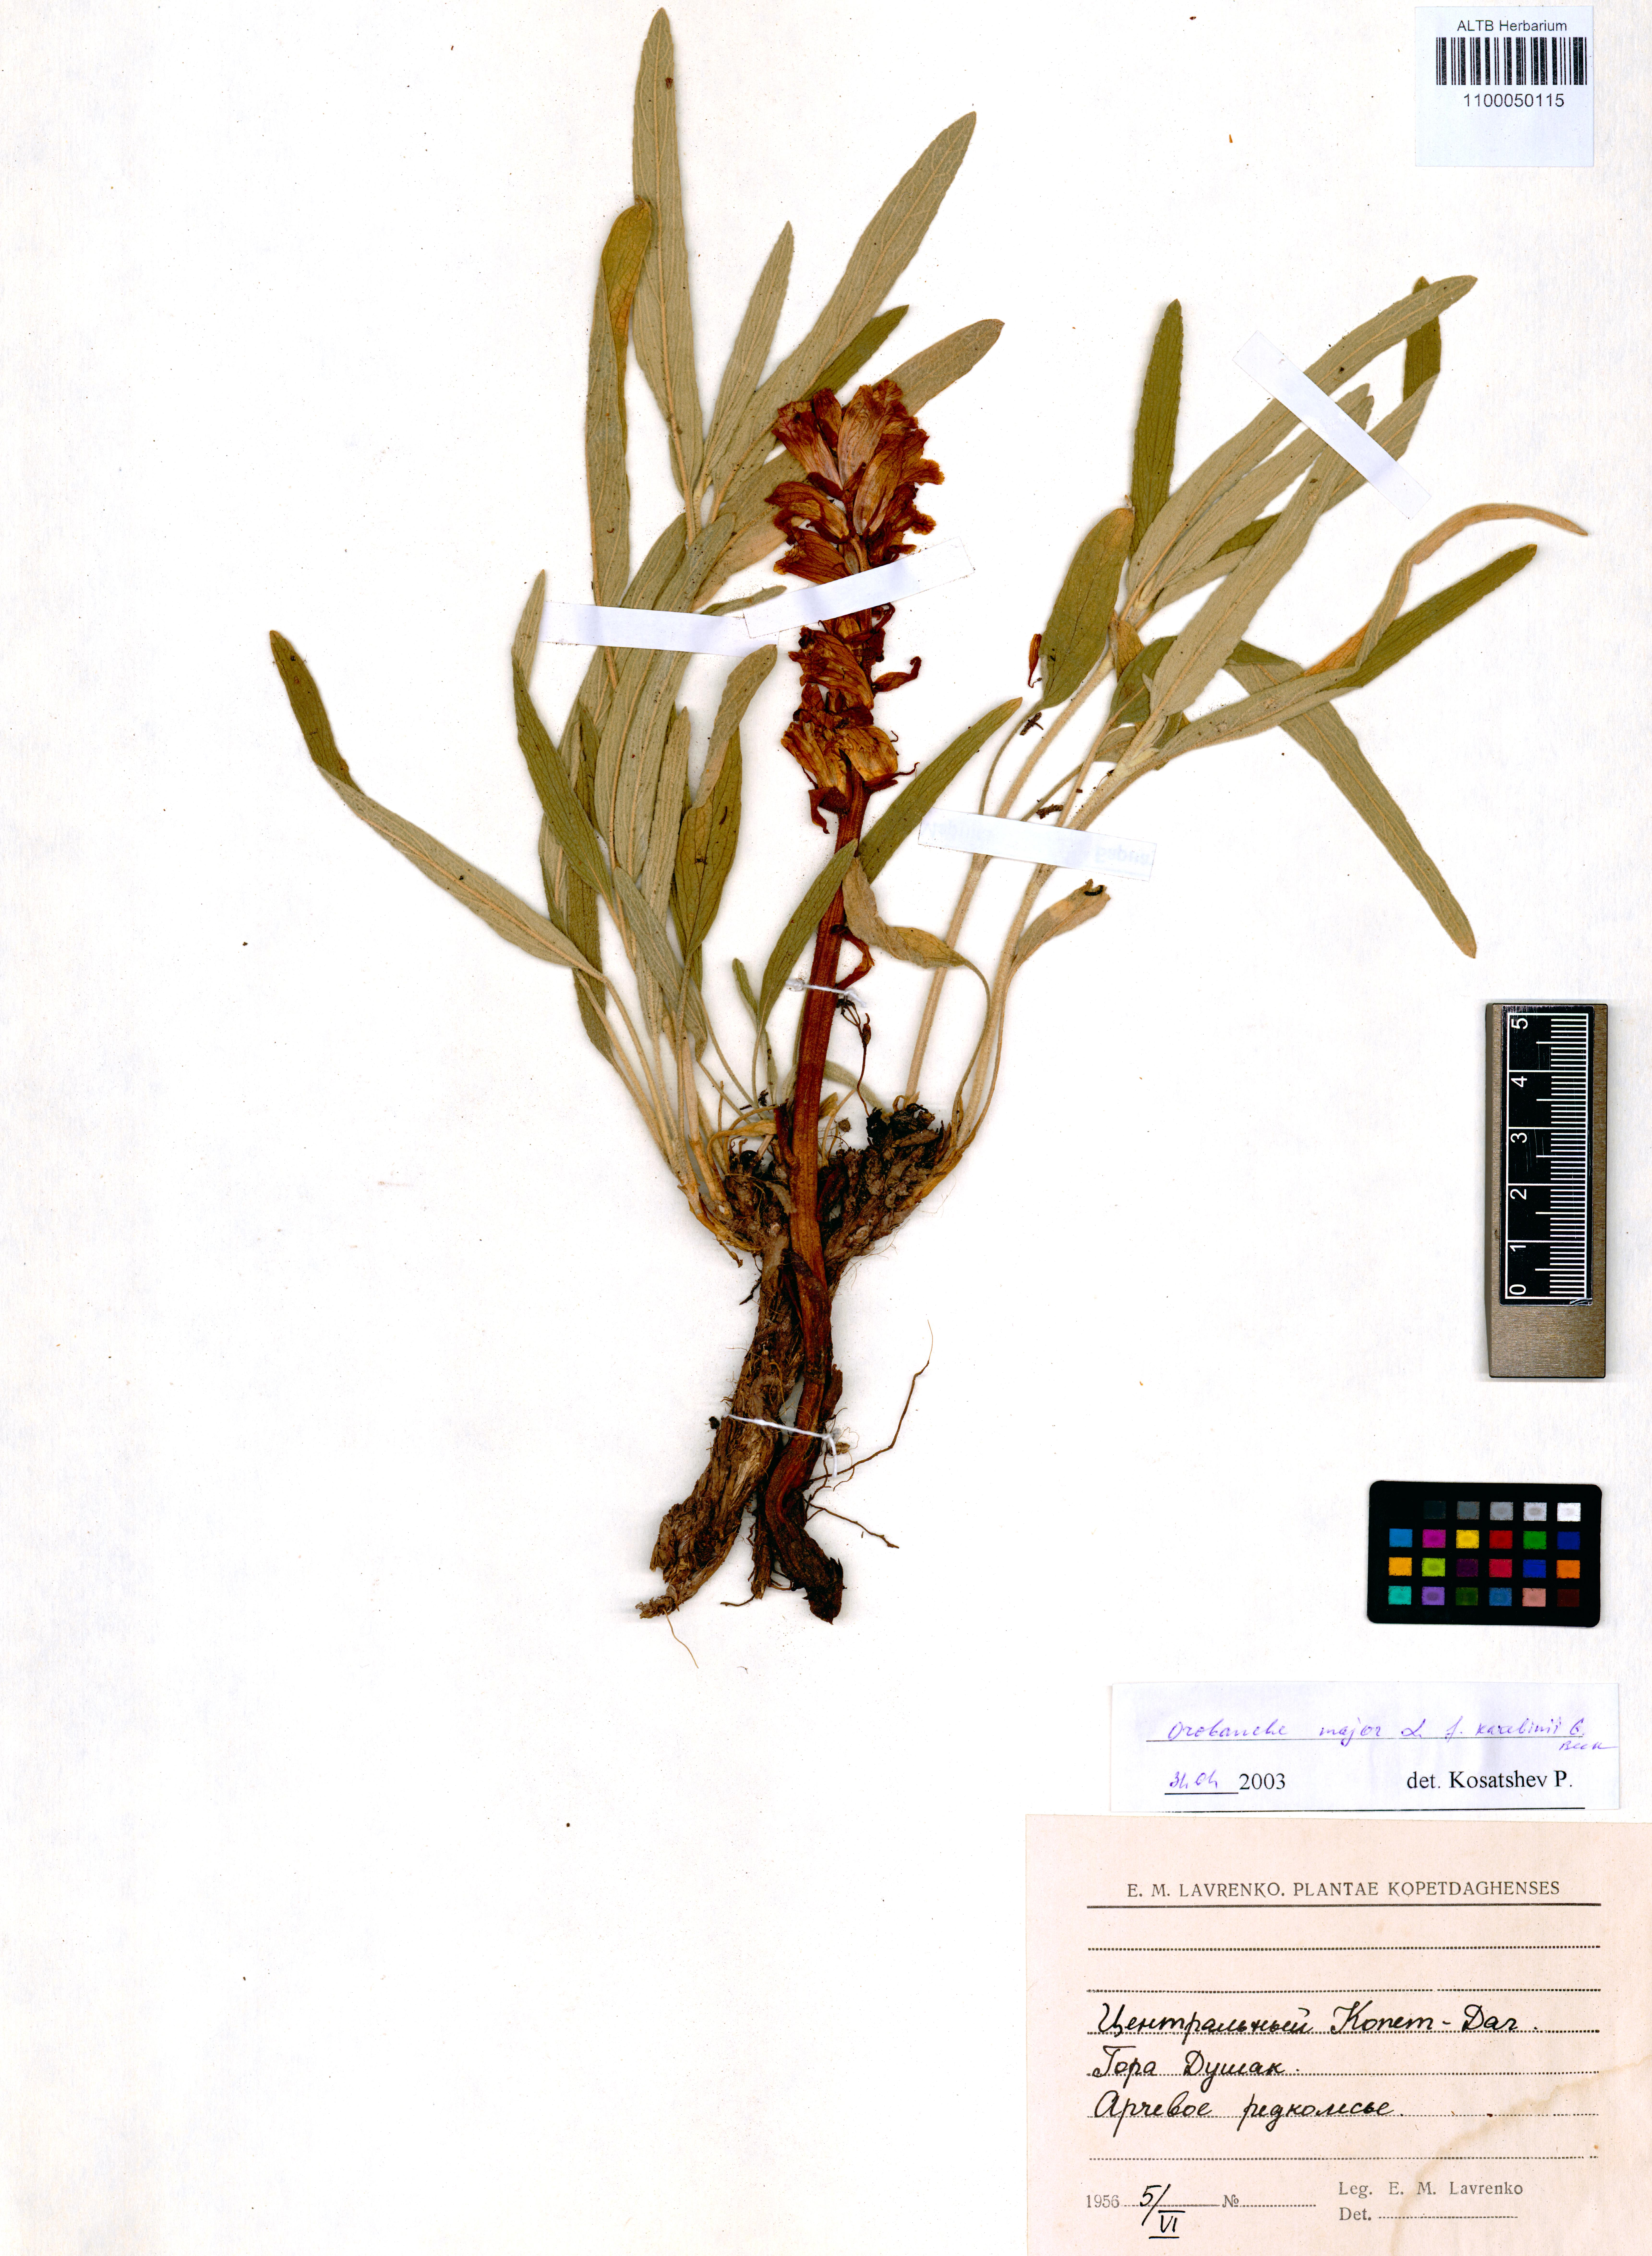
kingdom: Plantae
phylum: Tracheophyta
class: Magnoliopsida
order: Lamiales
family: Orobanchaceae
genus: Orobanche
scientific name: Orobanche rapum-genistae
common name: Greater broomrape
